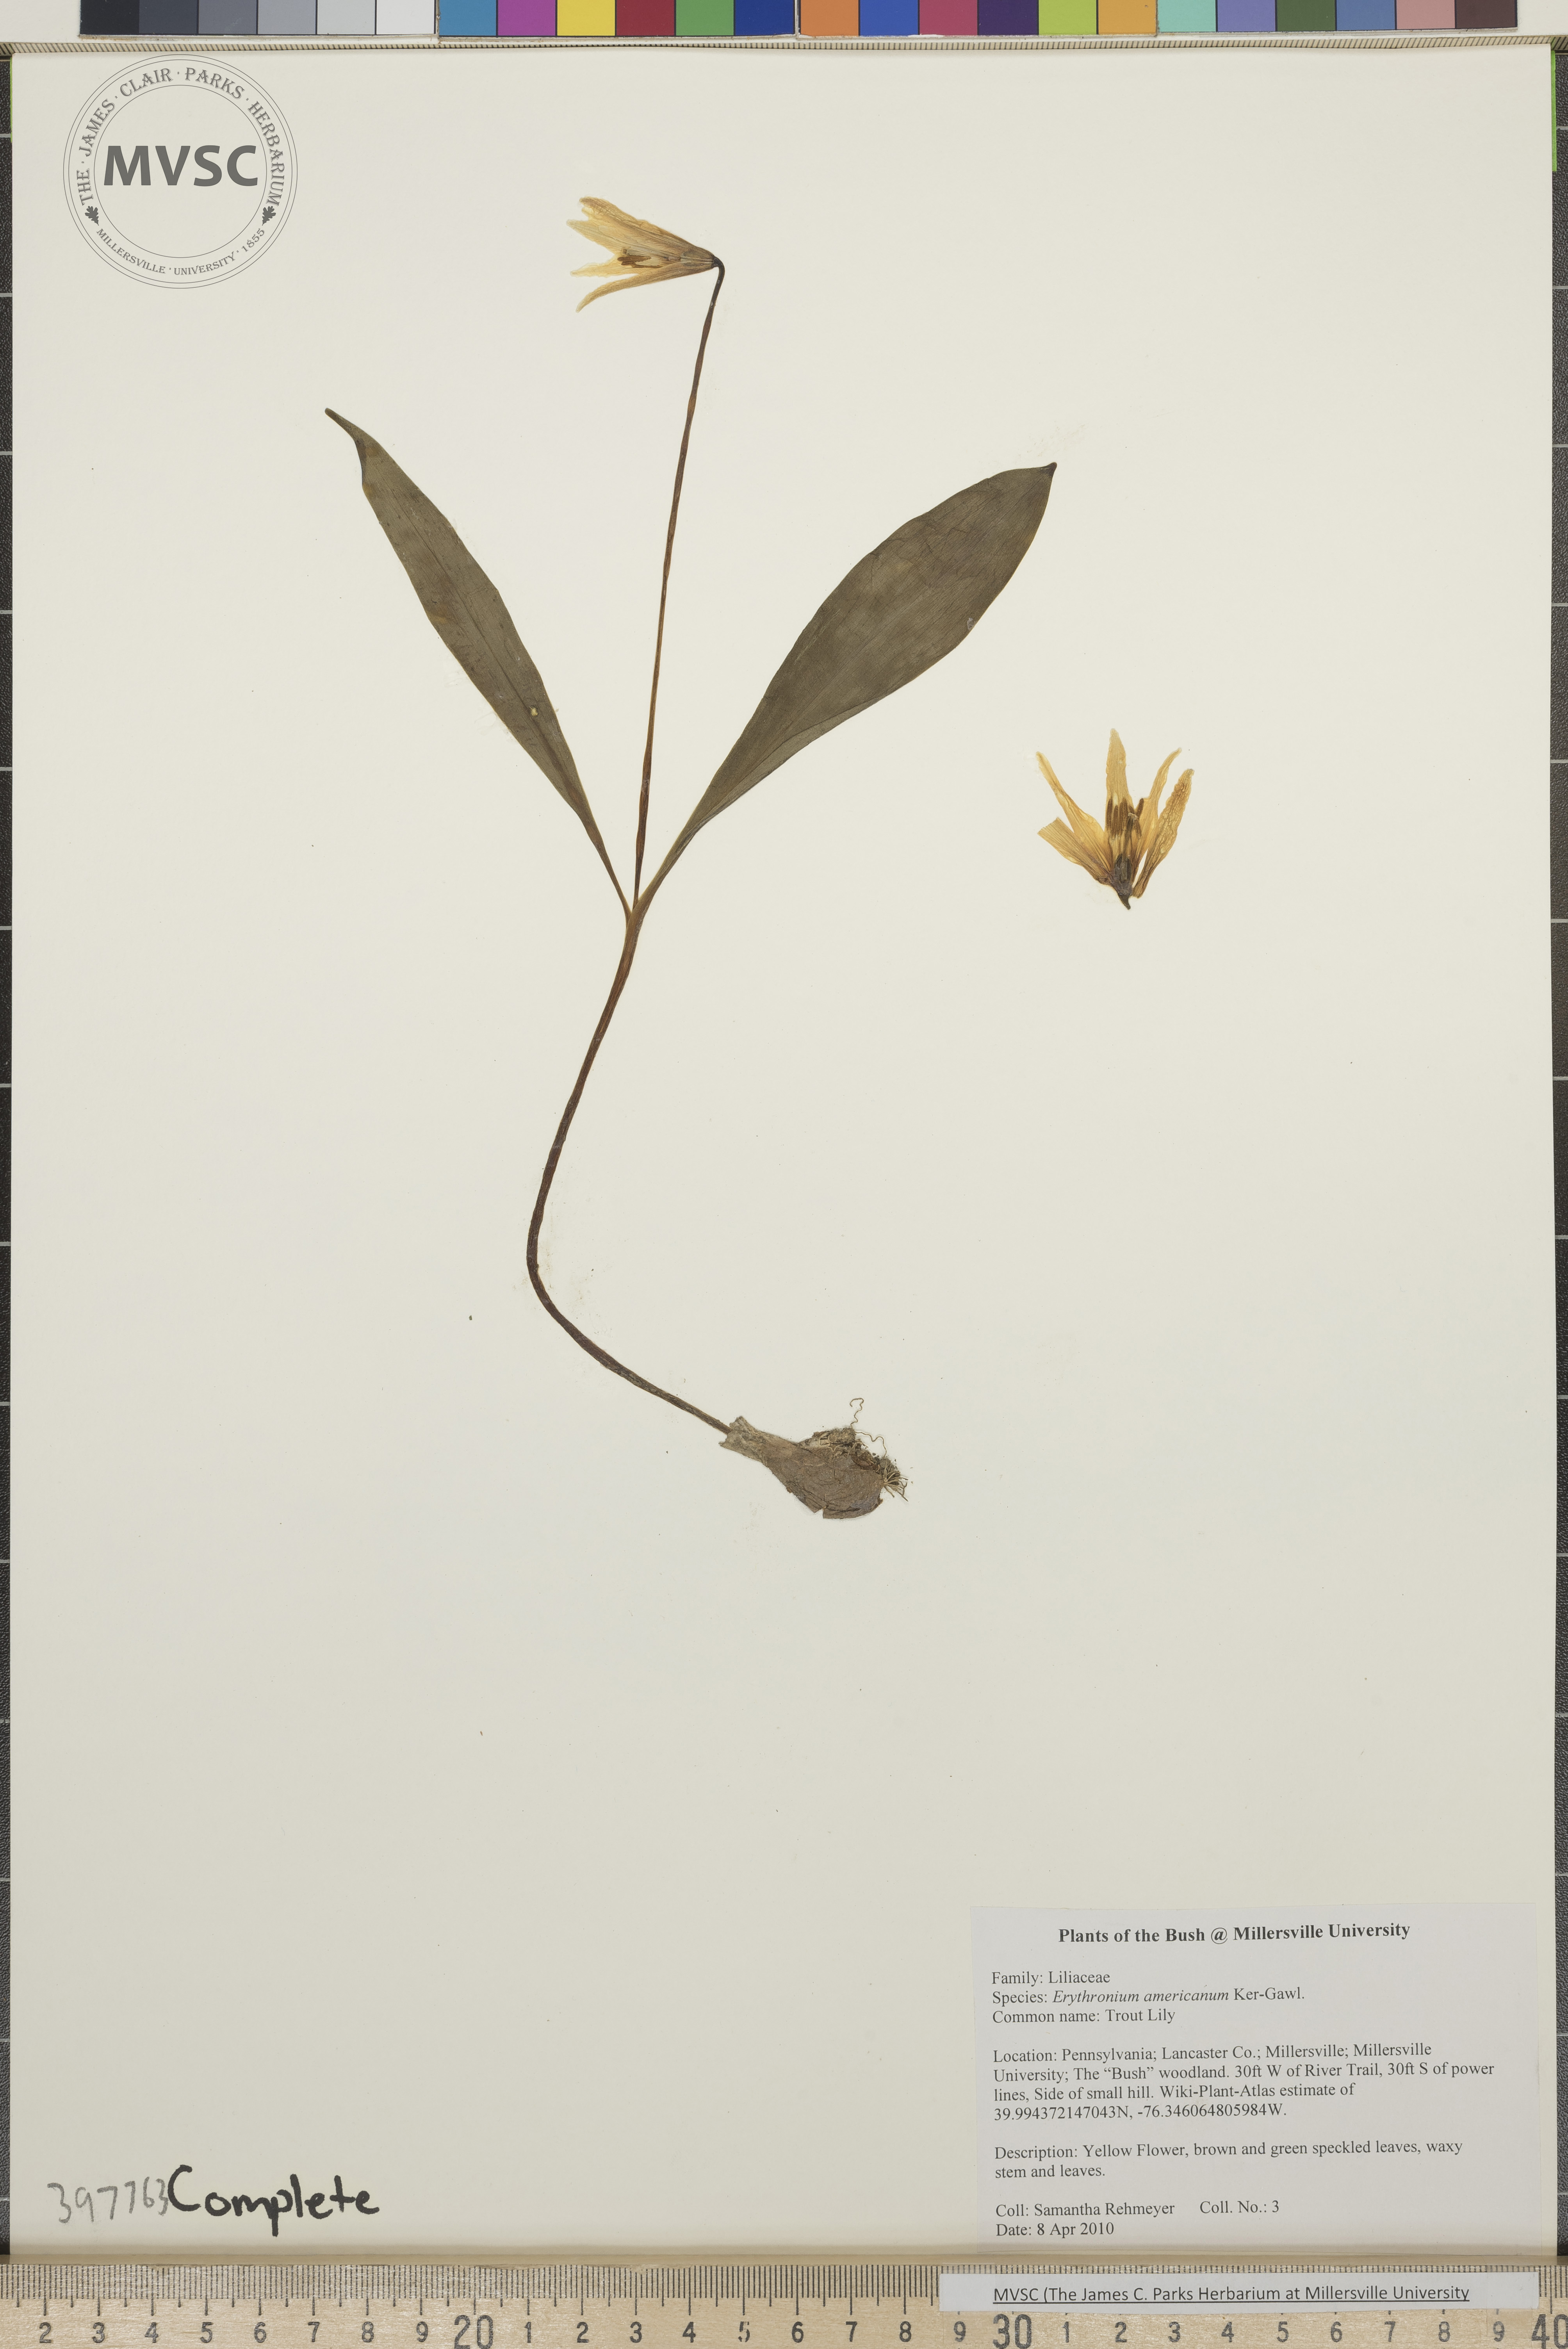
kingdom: Plantae
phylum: Tracheophyta
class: Liliopsida
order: Liliales
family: Liliaceae
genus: Erythronium
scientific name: Erythronium americanum
